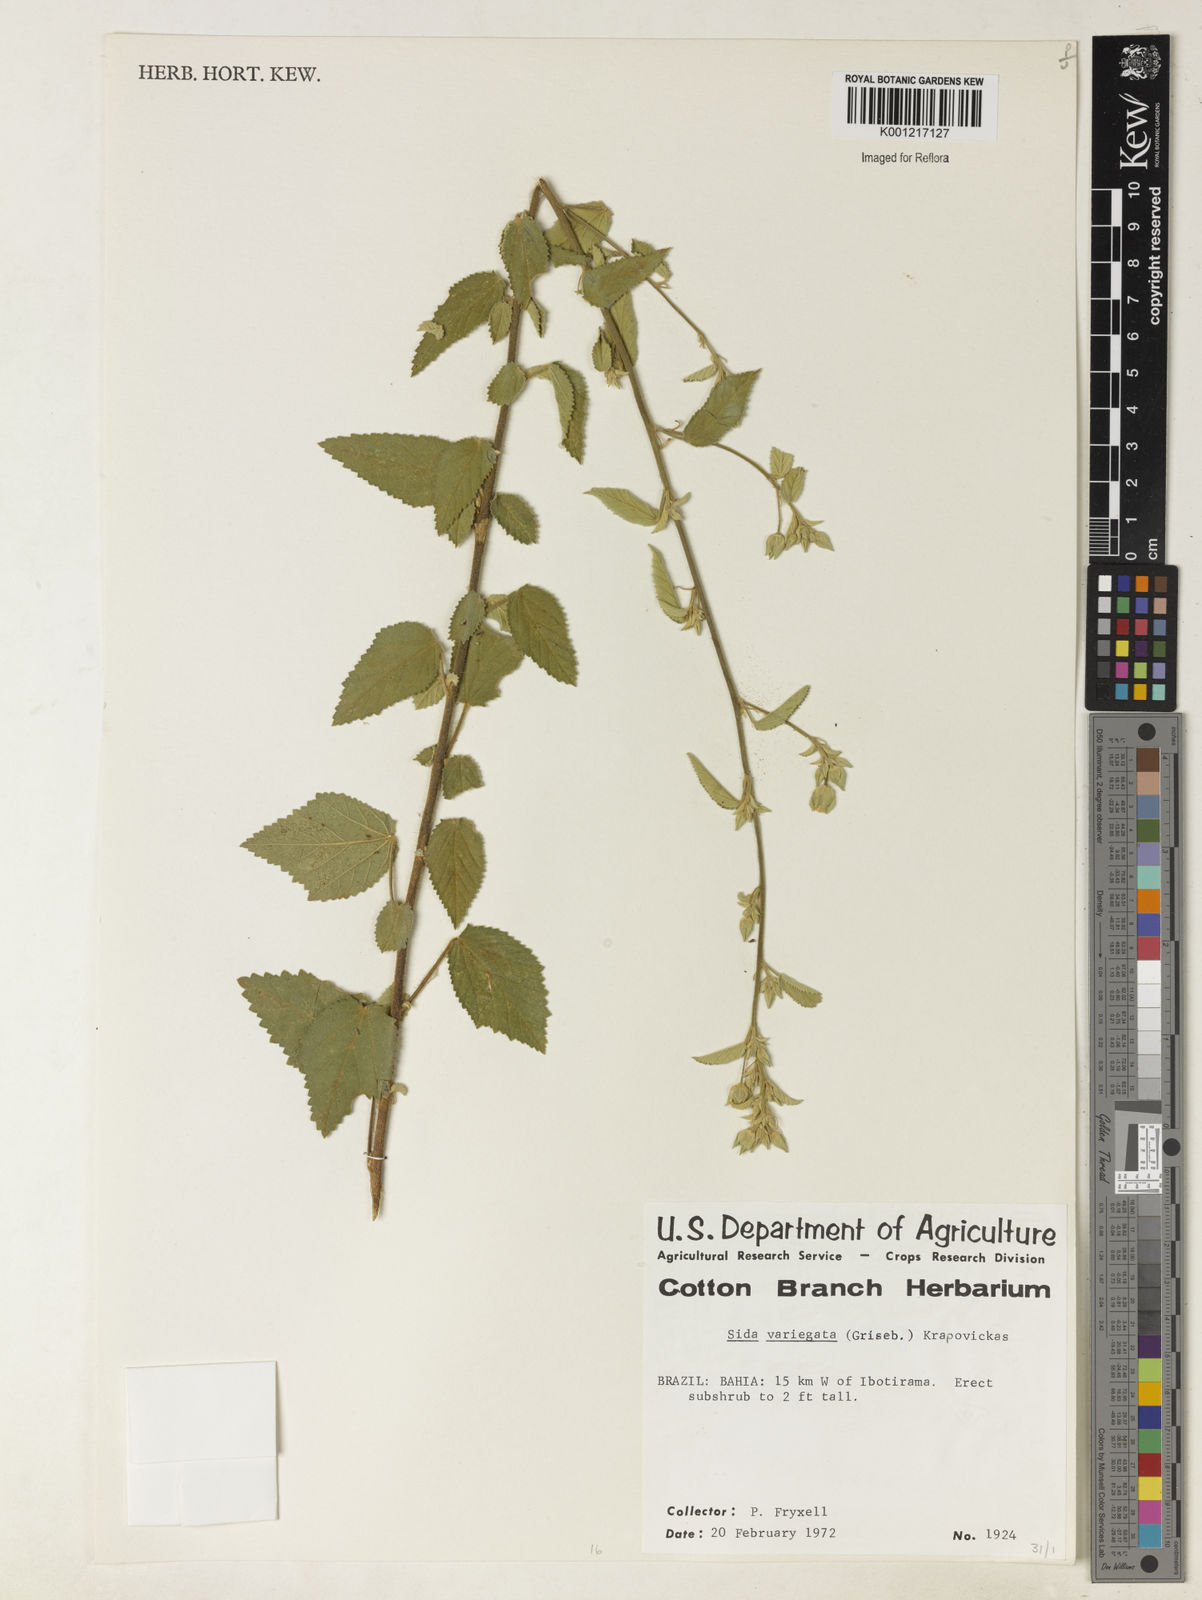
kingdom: Plantae
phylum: Tracheophyta
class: Magnoliopsida
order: Malvales
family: Malvaceae
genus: Sida
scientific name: Sida variegata
